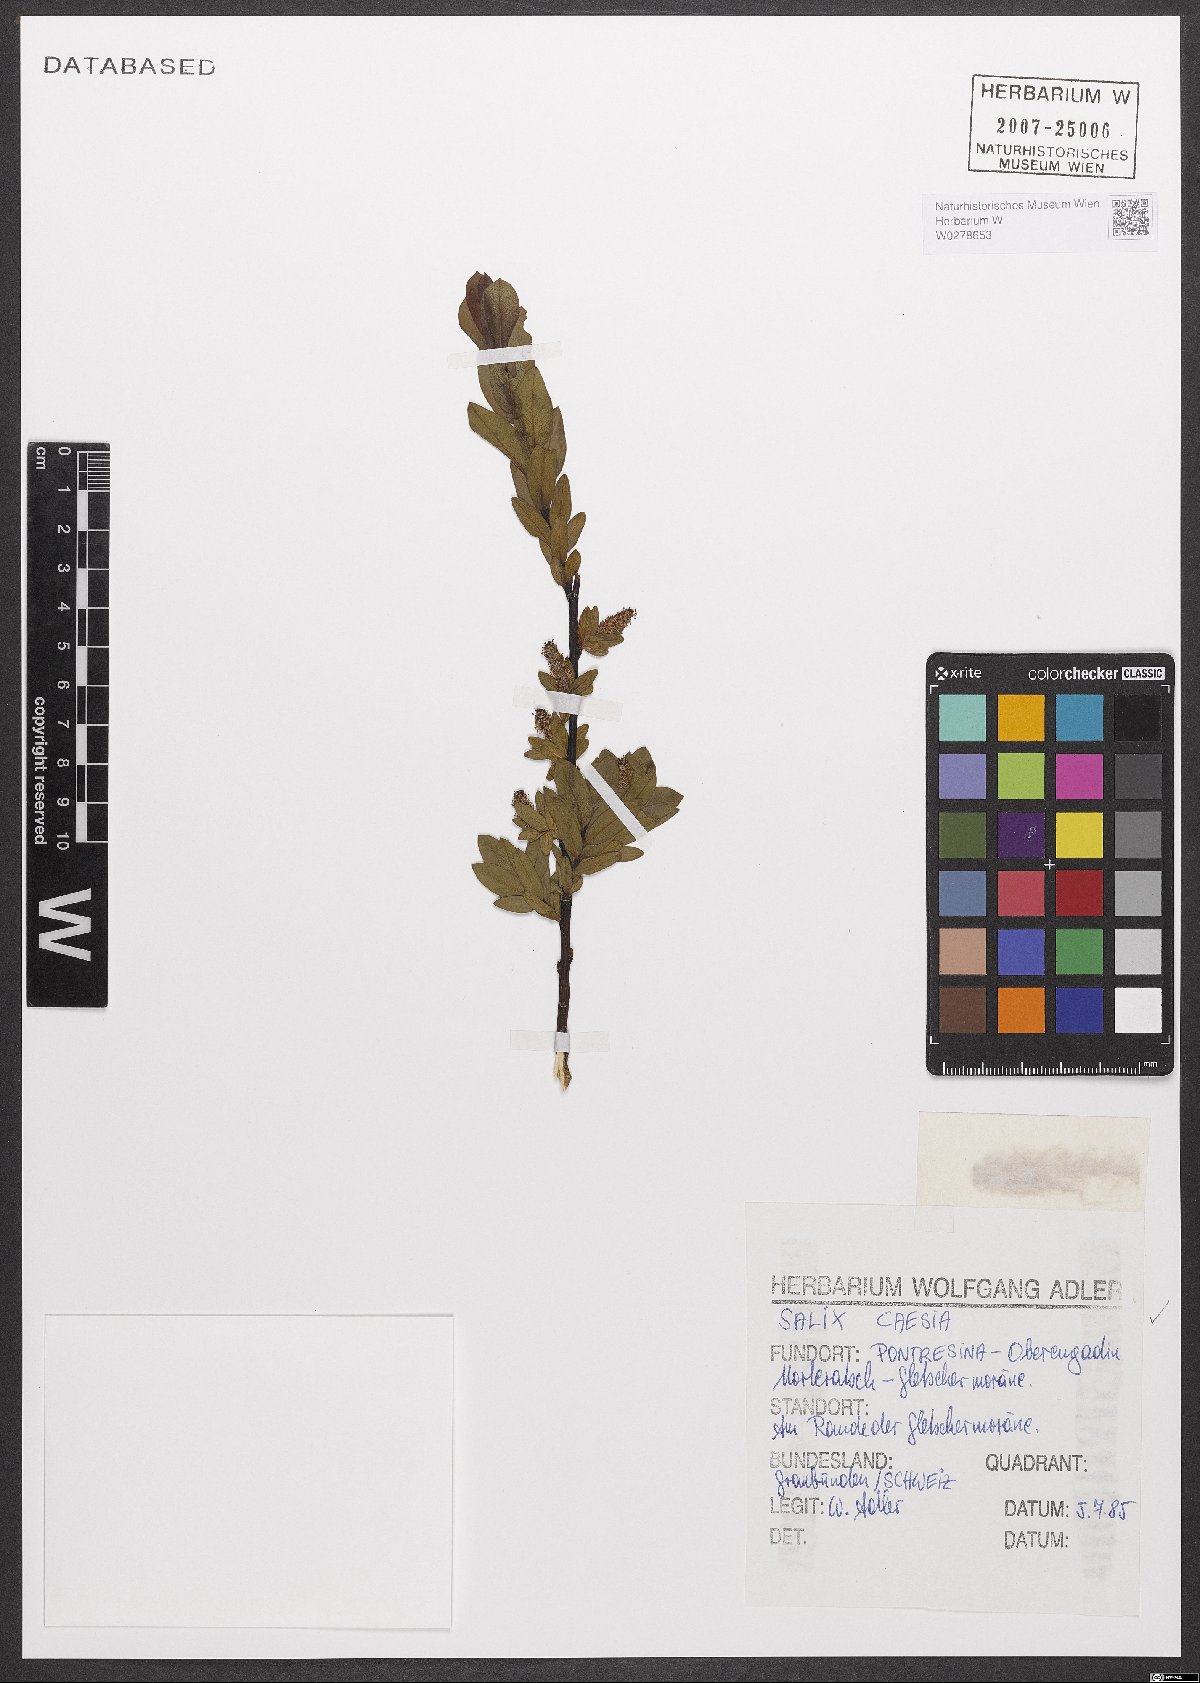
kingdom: Plantae
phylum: Tracheophyta
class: Magnoliopsida
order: Malpighiales
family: Salicaceae
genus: Salix
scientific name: Salix caesia
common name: Blue willow
